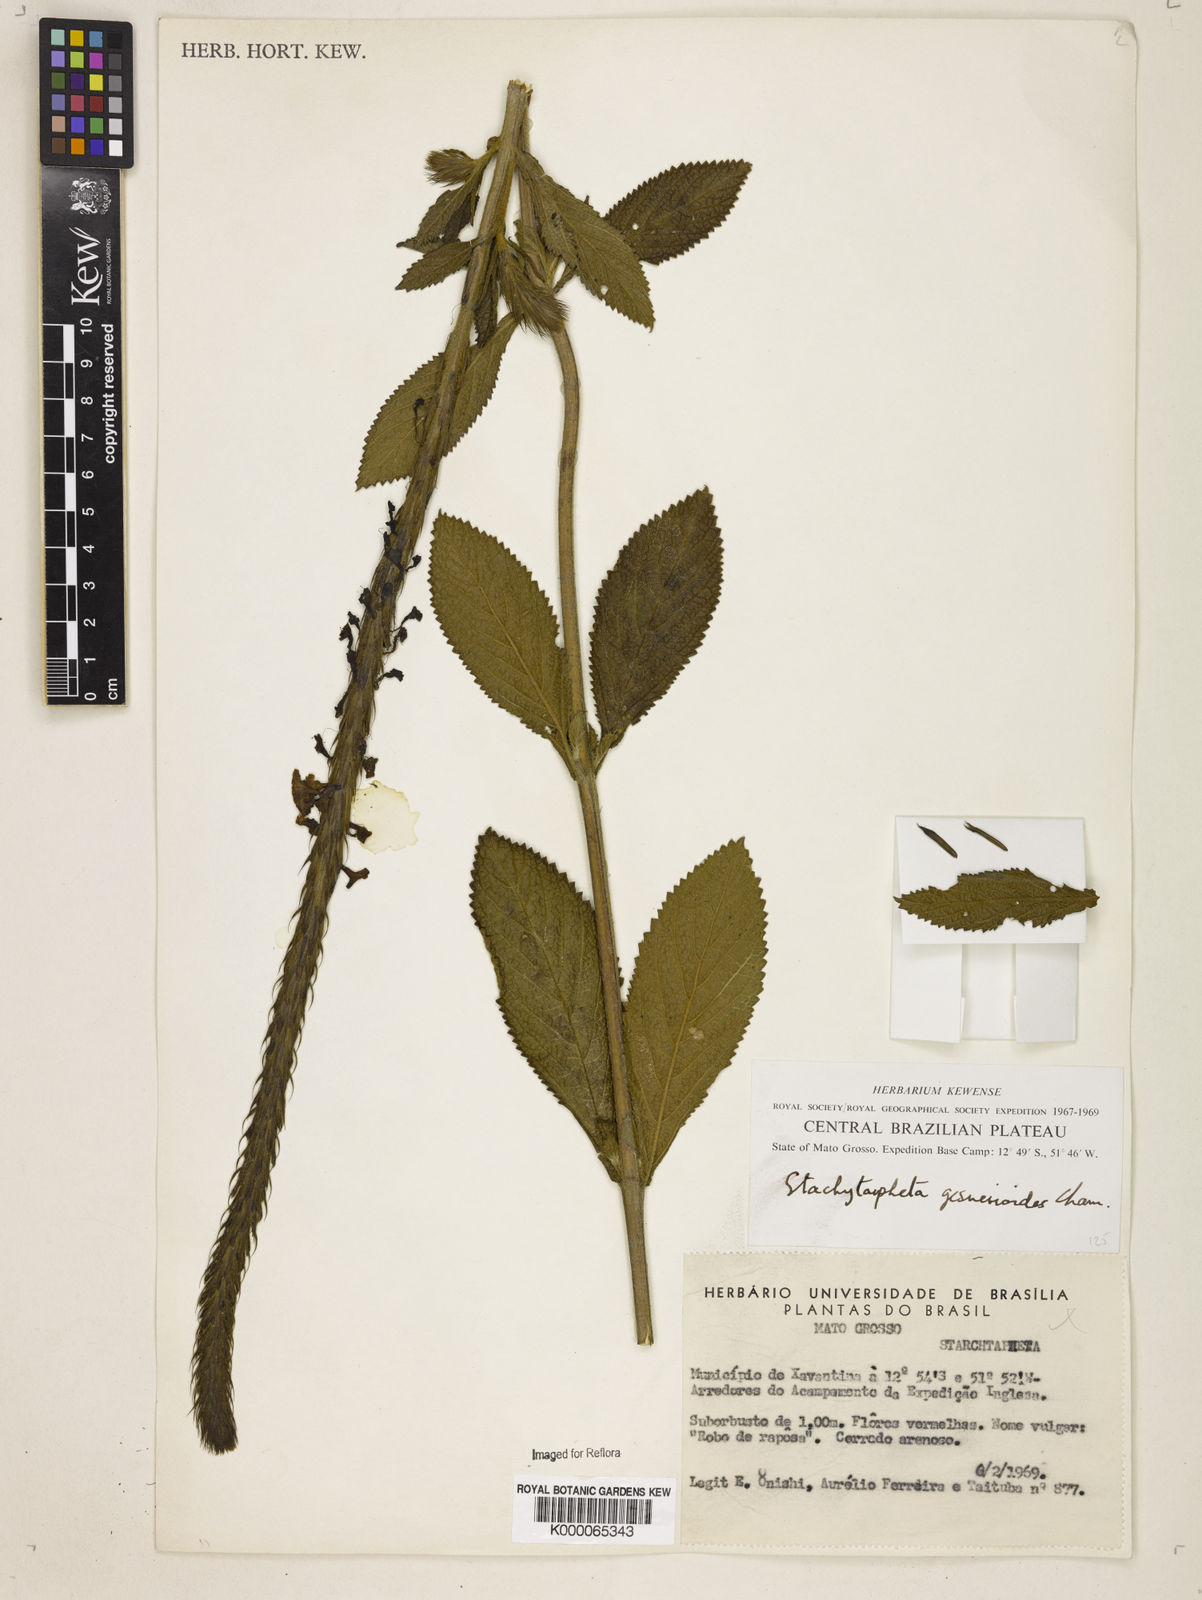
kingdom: Plantae
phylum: Tracheophyta
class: Magnoliopsida
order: Lamiales
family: Verbenaceae
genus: Stachytarpheta
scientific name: Stachytarpheta gesnerioides
